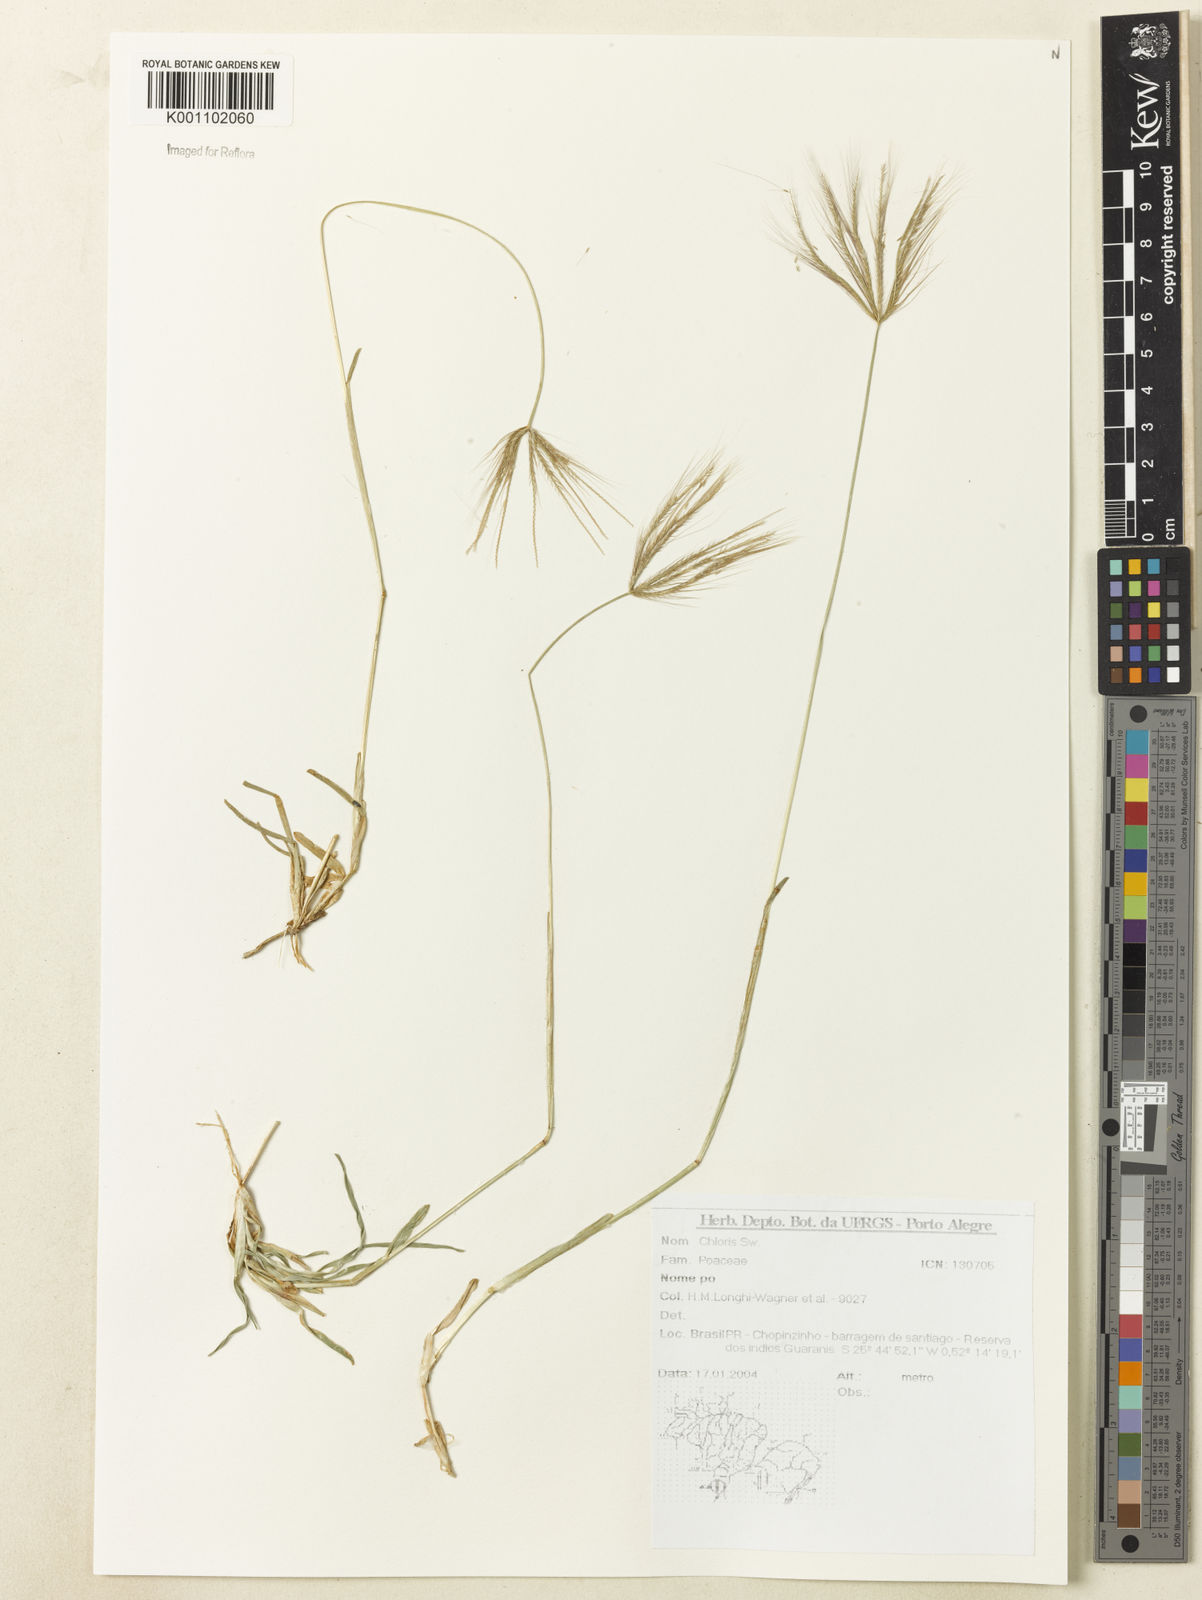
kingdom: Plantae
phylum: Tracheophyta
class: Liliopsida
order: Poales
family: Poaceae
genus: Chloris
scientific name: Chloris
